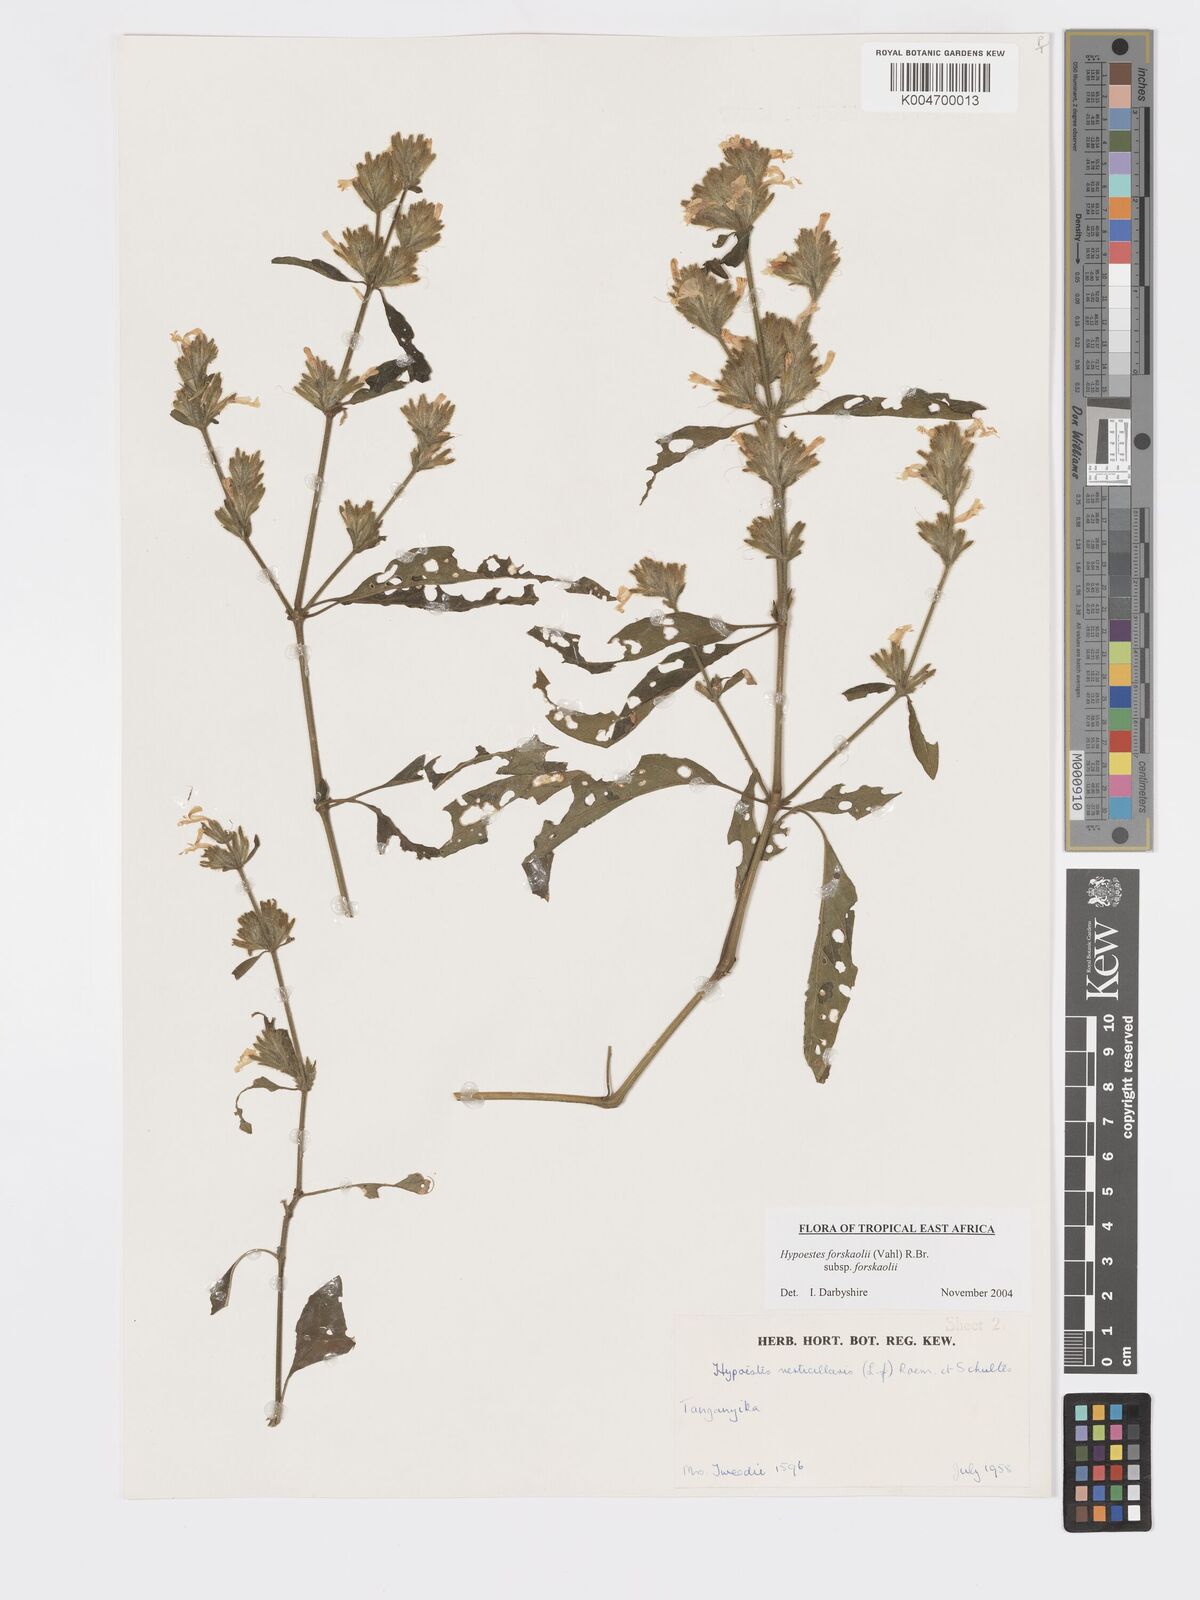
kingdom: Plantae
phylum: Tracheophyta
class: Magnoliopsida
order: Lamiales
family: Acanthaceae
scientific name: Acanthaceae
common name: Acanthaceae
